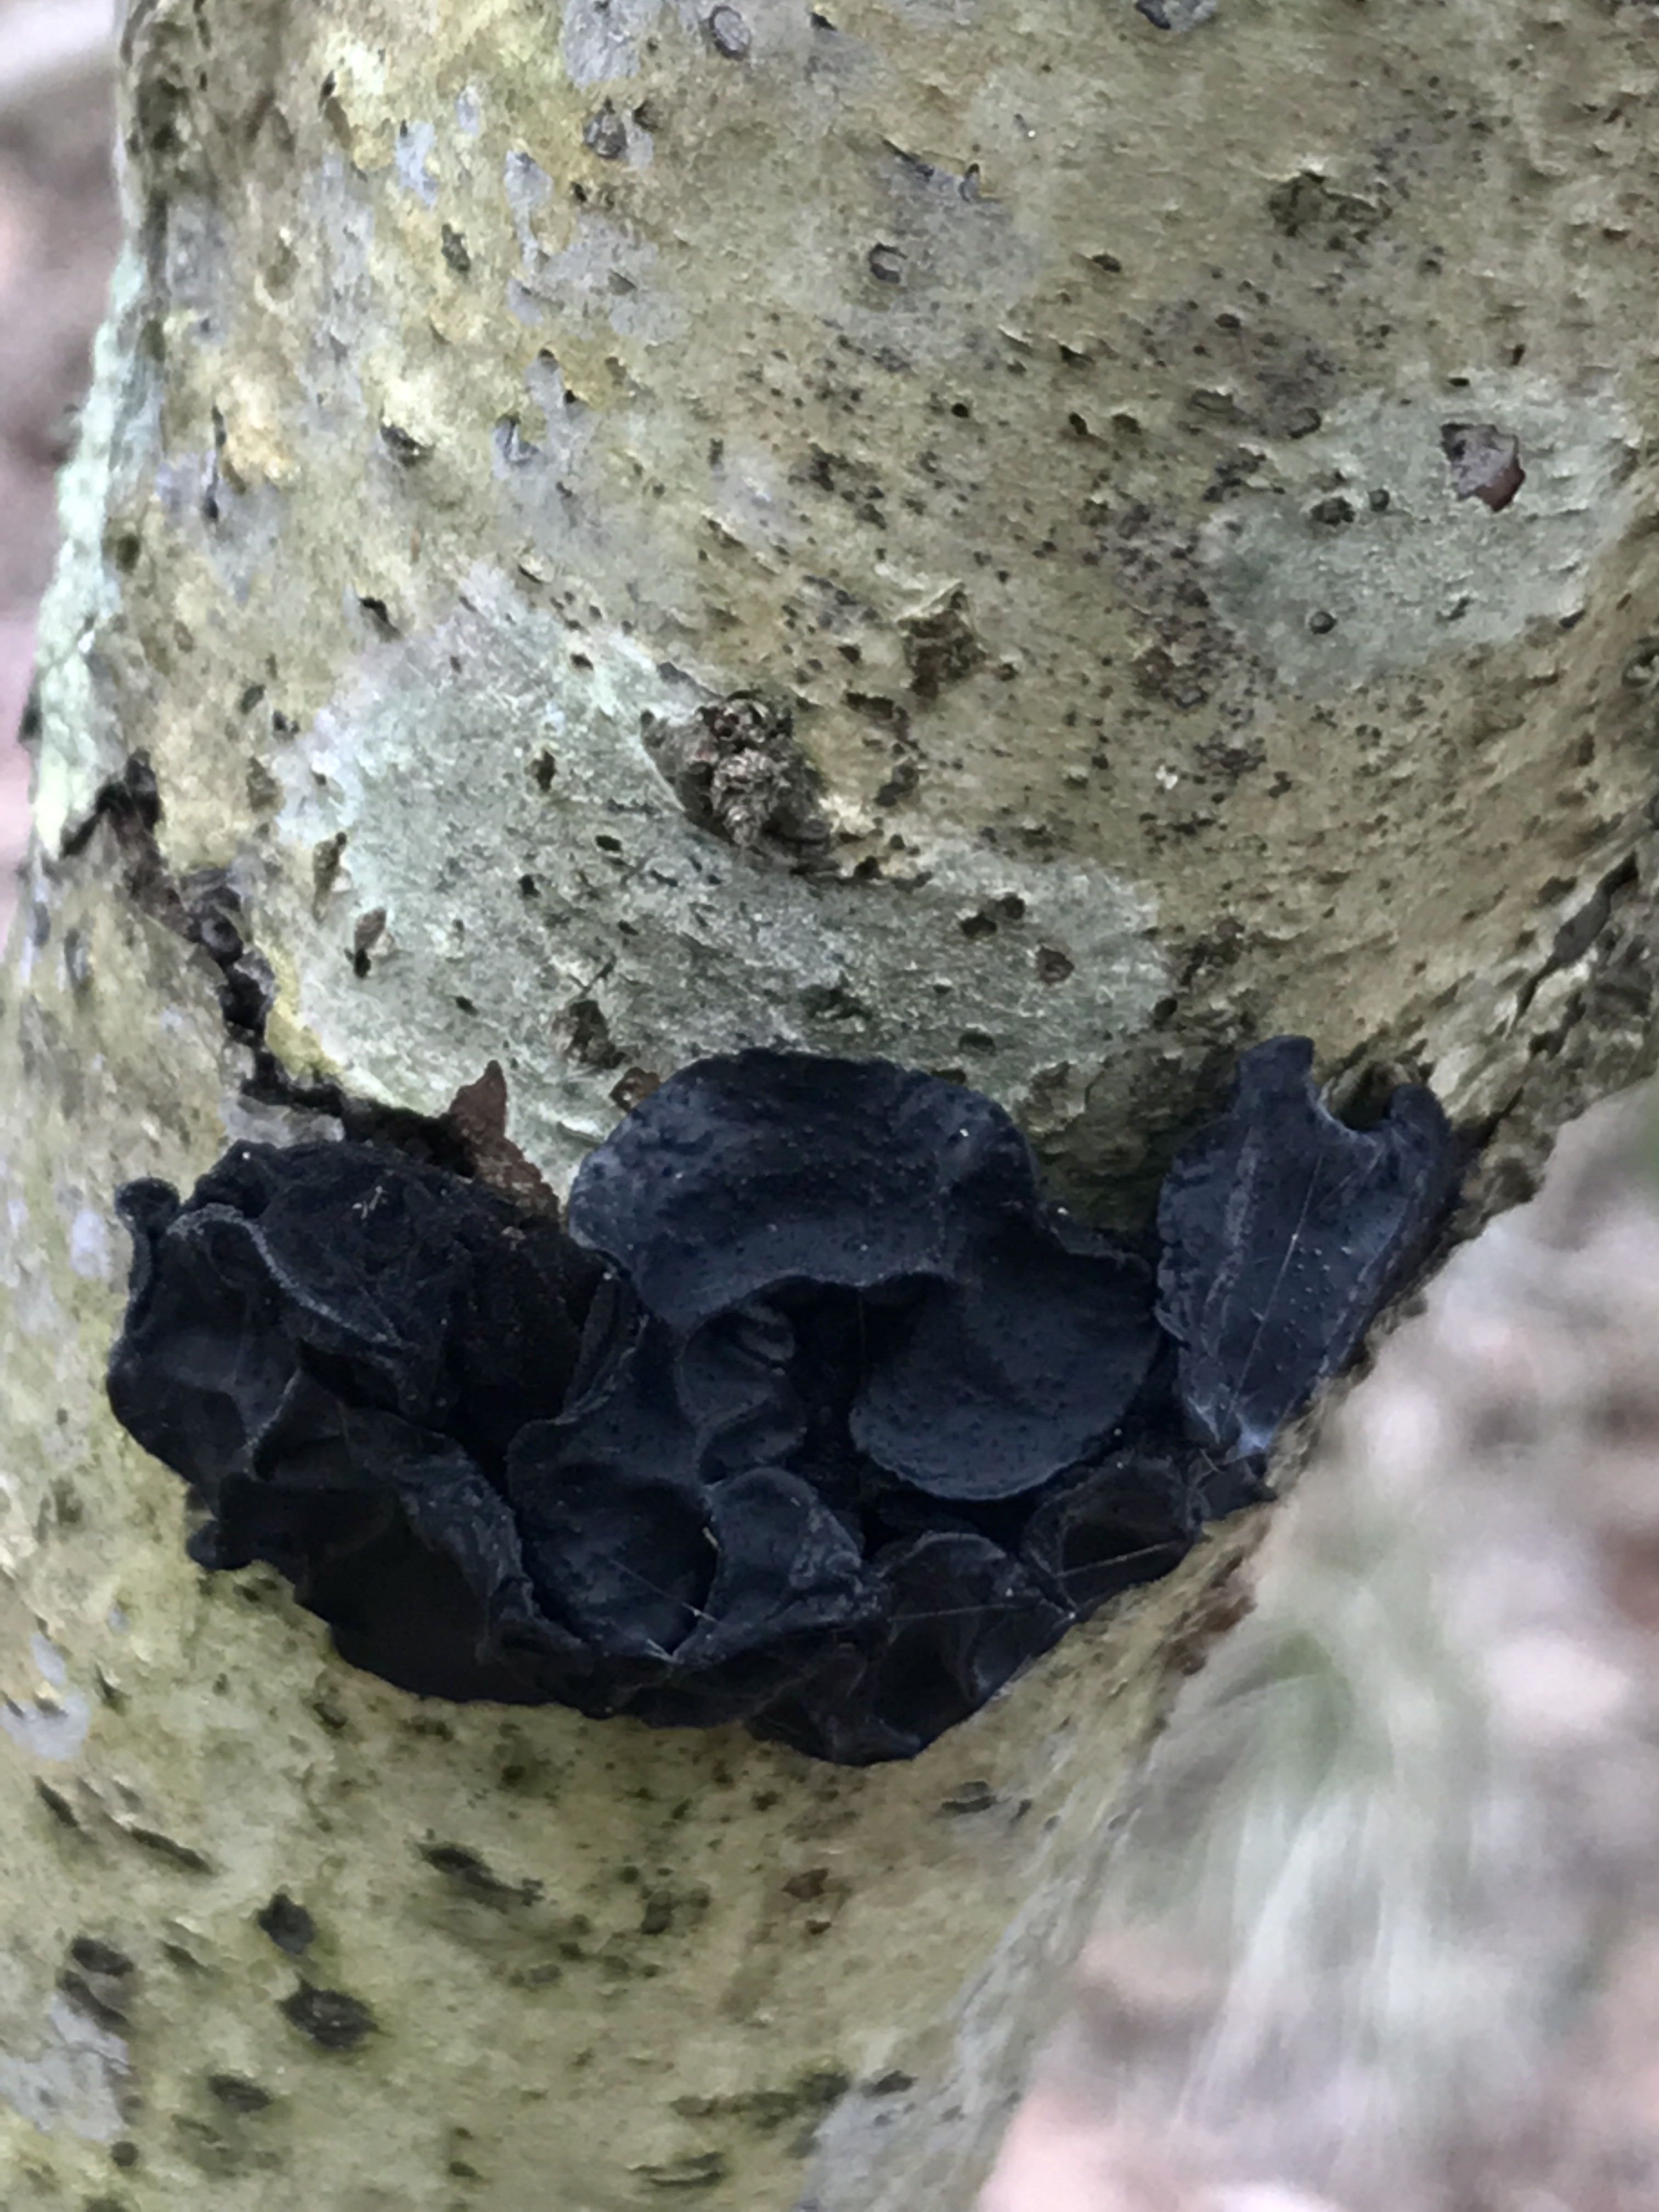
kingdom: Fungi
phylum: Basidiomycota
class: Agaricomycetes
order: Auriculariales
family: Auriculariaceae
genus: Exidia
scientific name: Exidia glandulosa
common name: ege-bævretop
